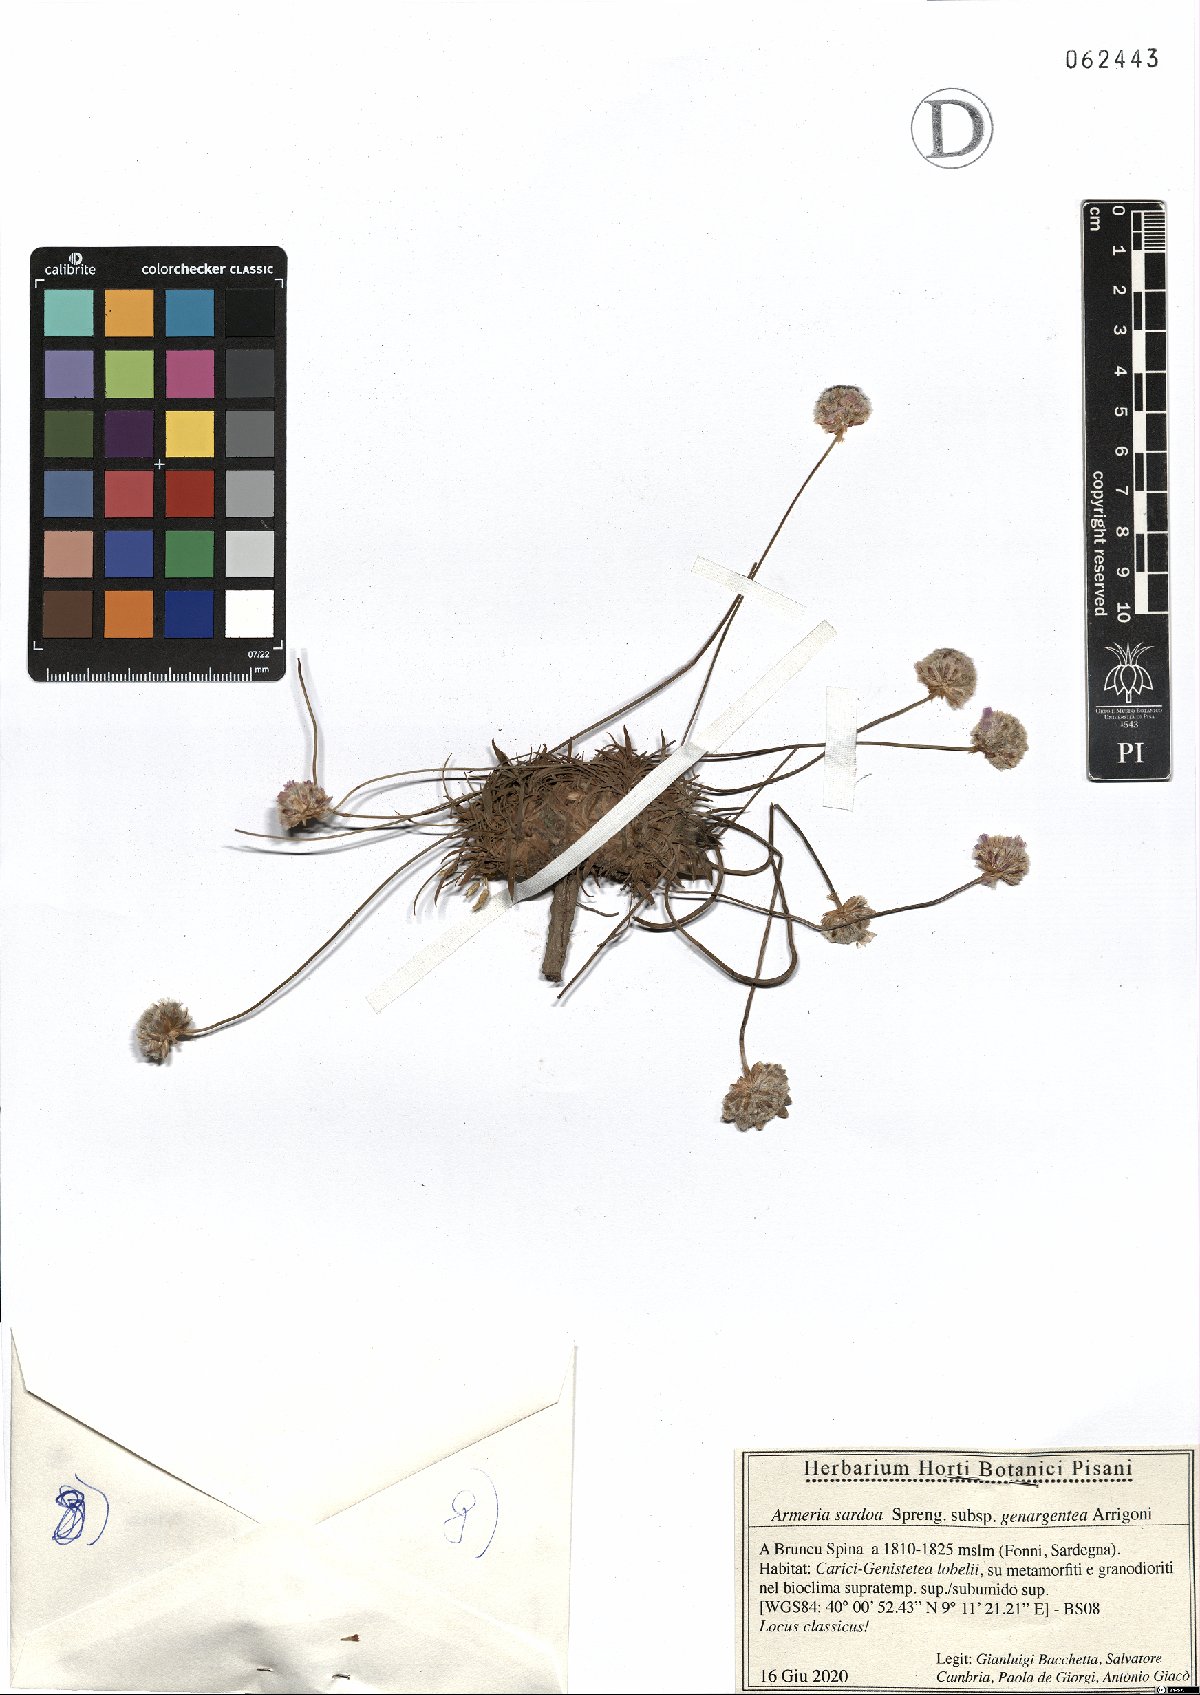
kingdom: Plantae
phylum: Tracheophyta
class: Magnoliopsida
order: Caryophyllales
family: Plumbaginaceae
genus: Armeria
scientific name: Armeria sardoa
